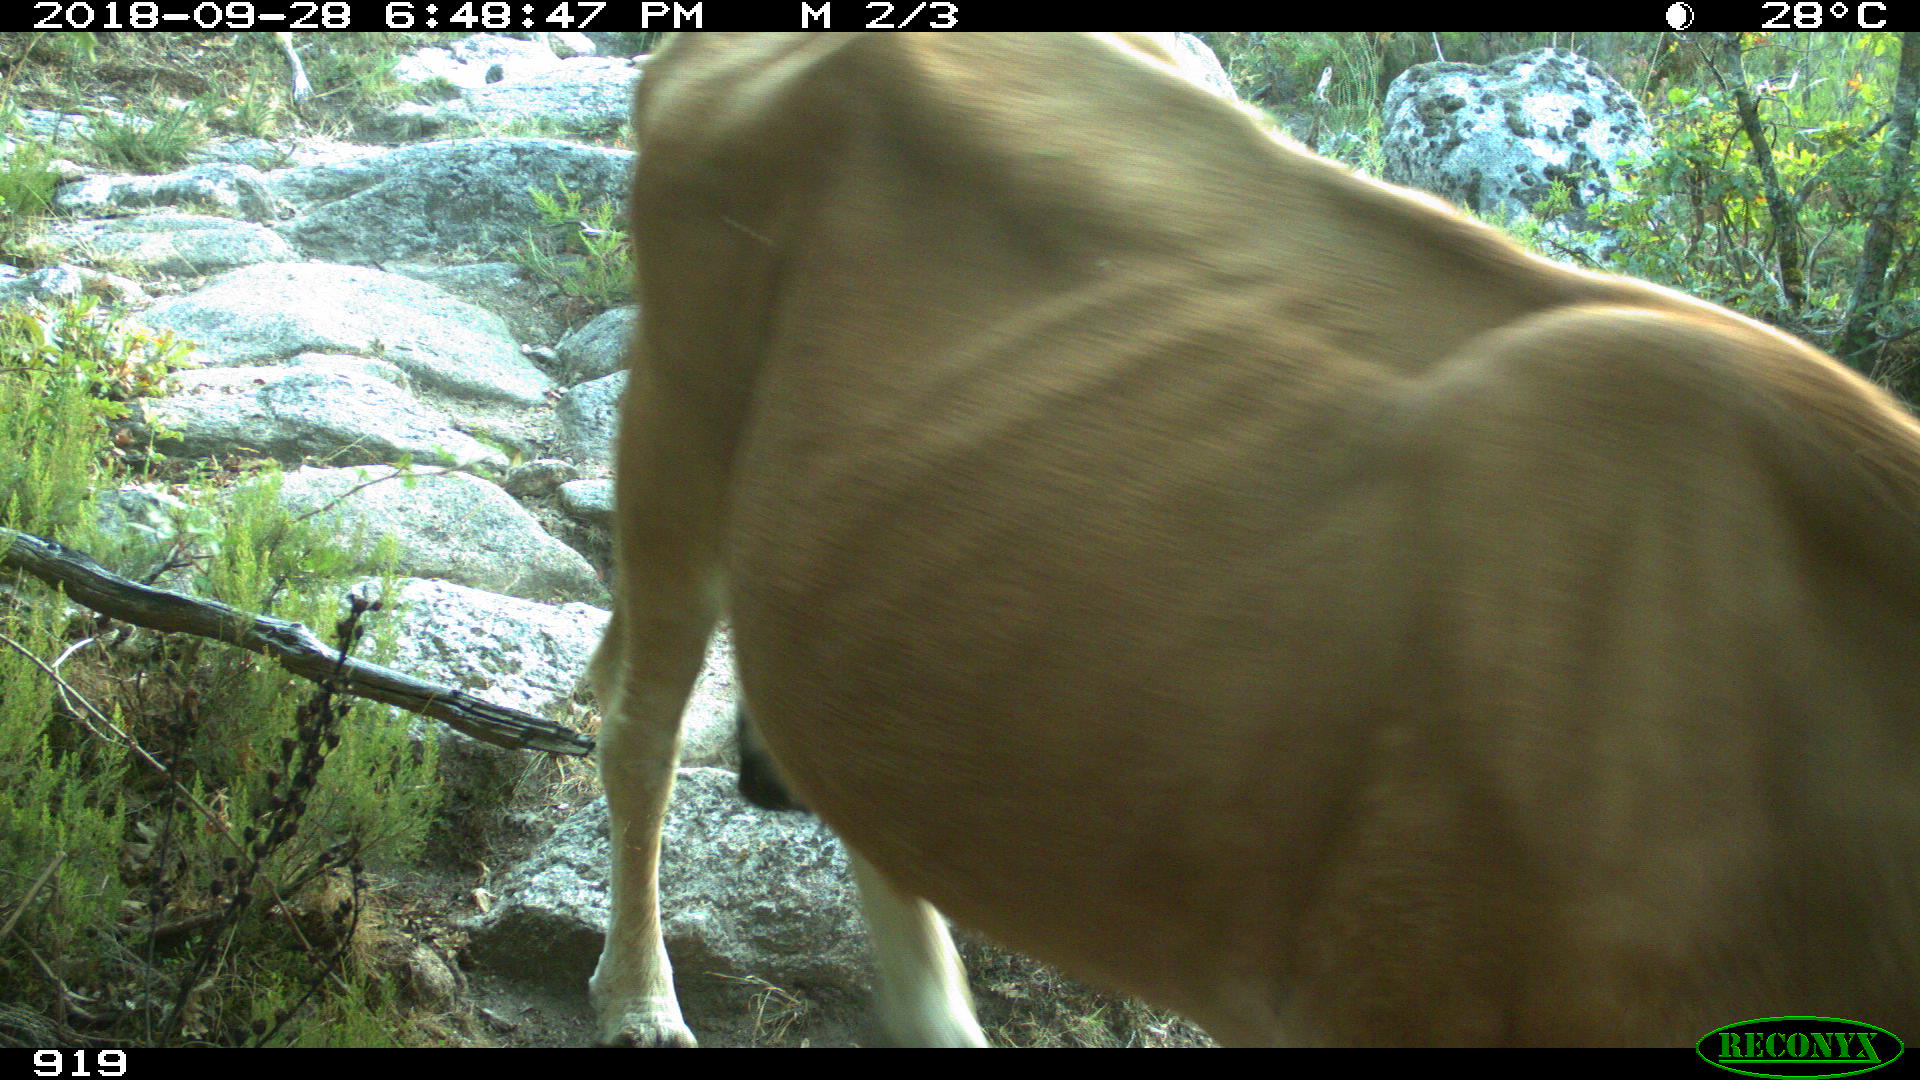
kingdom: Animalia
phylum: Chordata
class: Mammalia
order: Artiodactyla
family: Bovidae
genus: Bos
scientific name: Bos taurus
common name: Domesticated cattle
